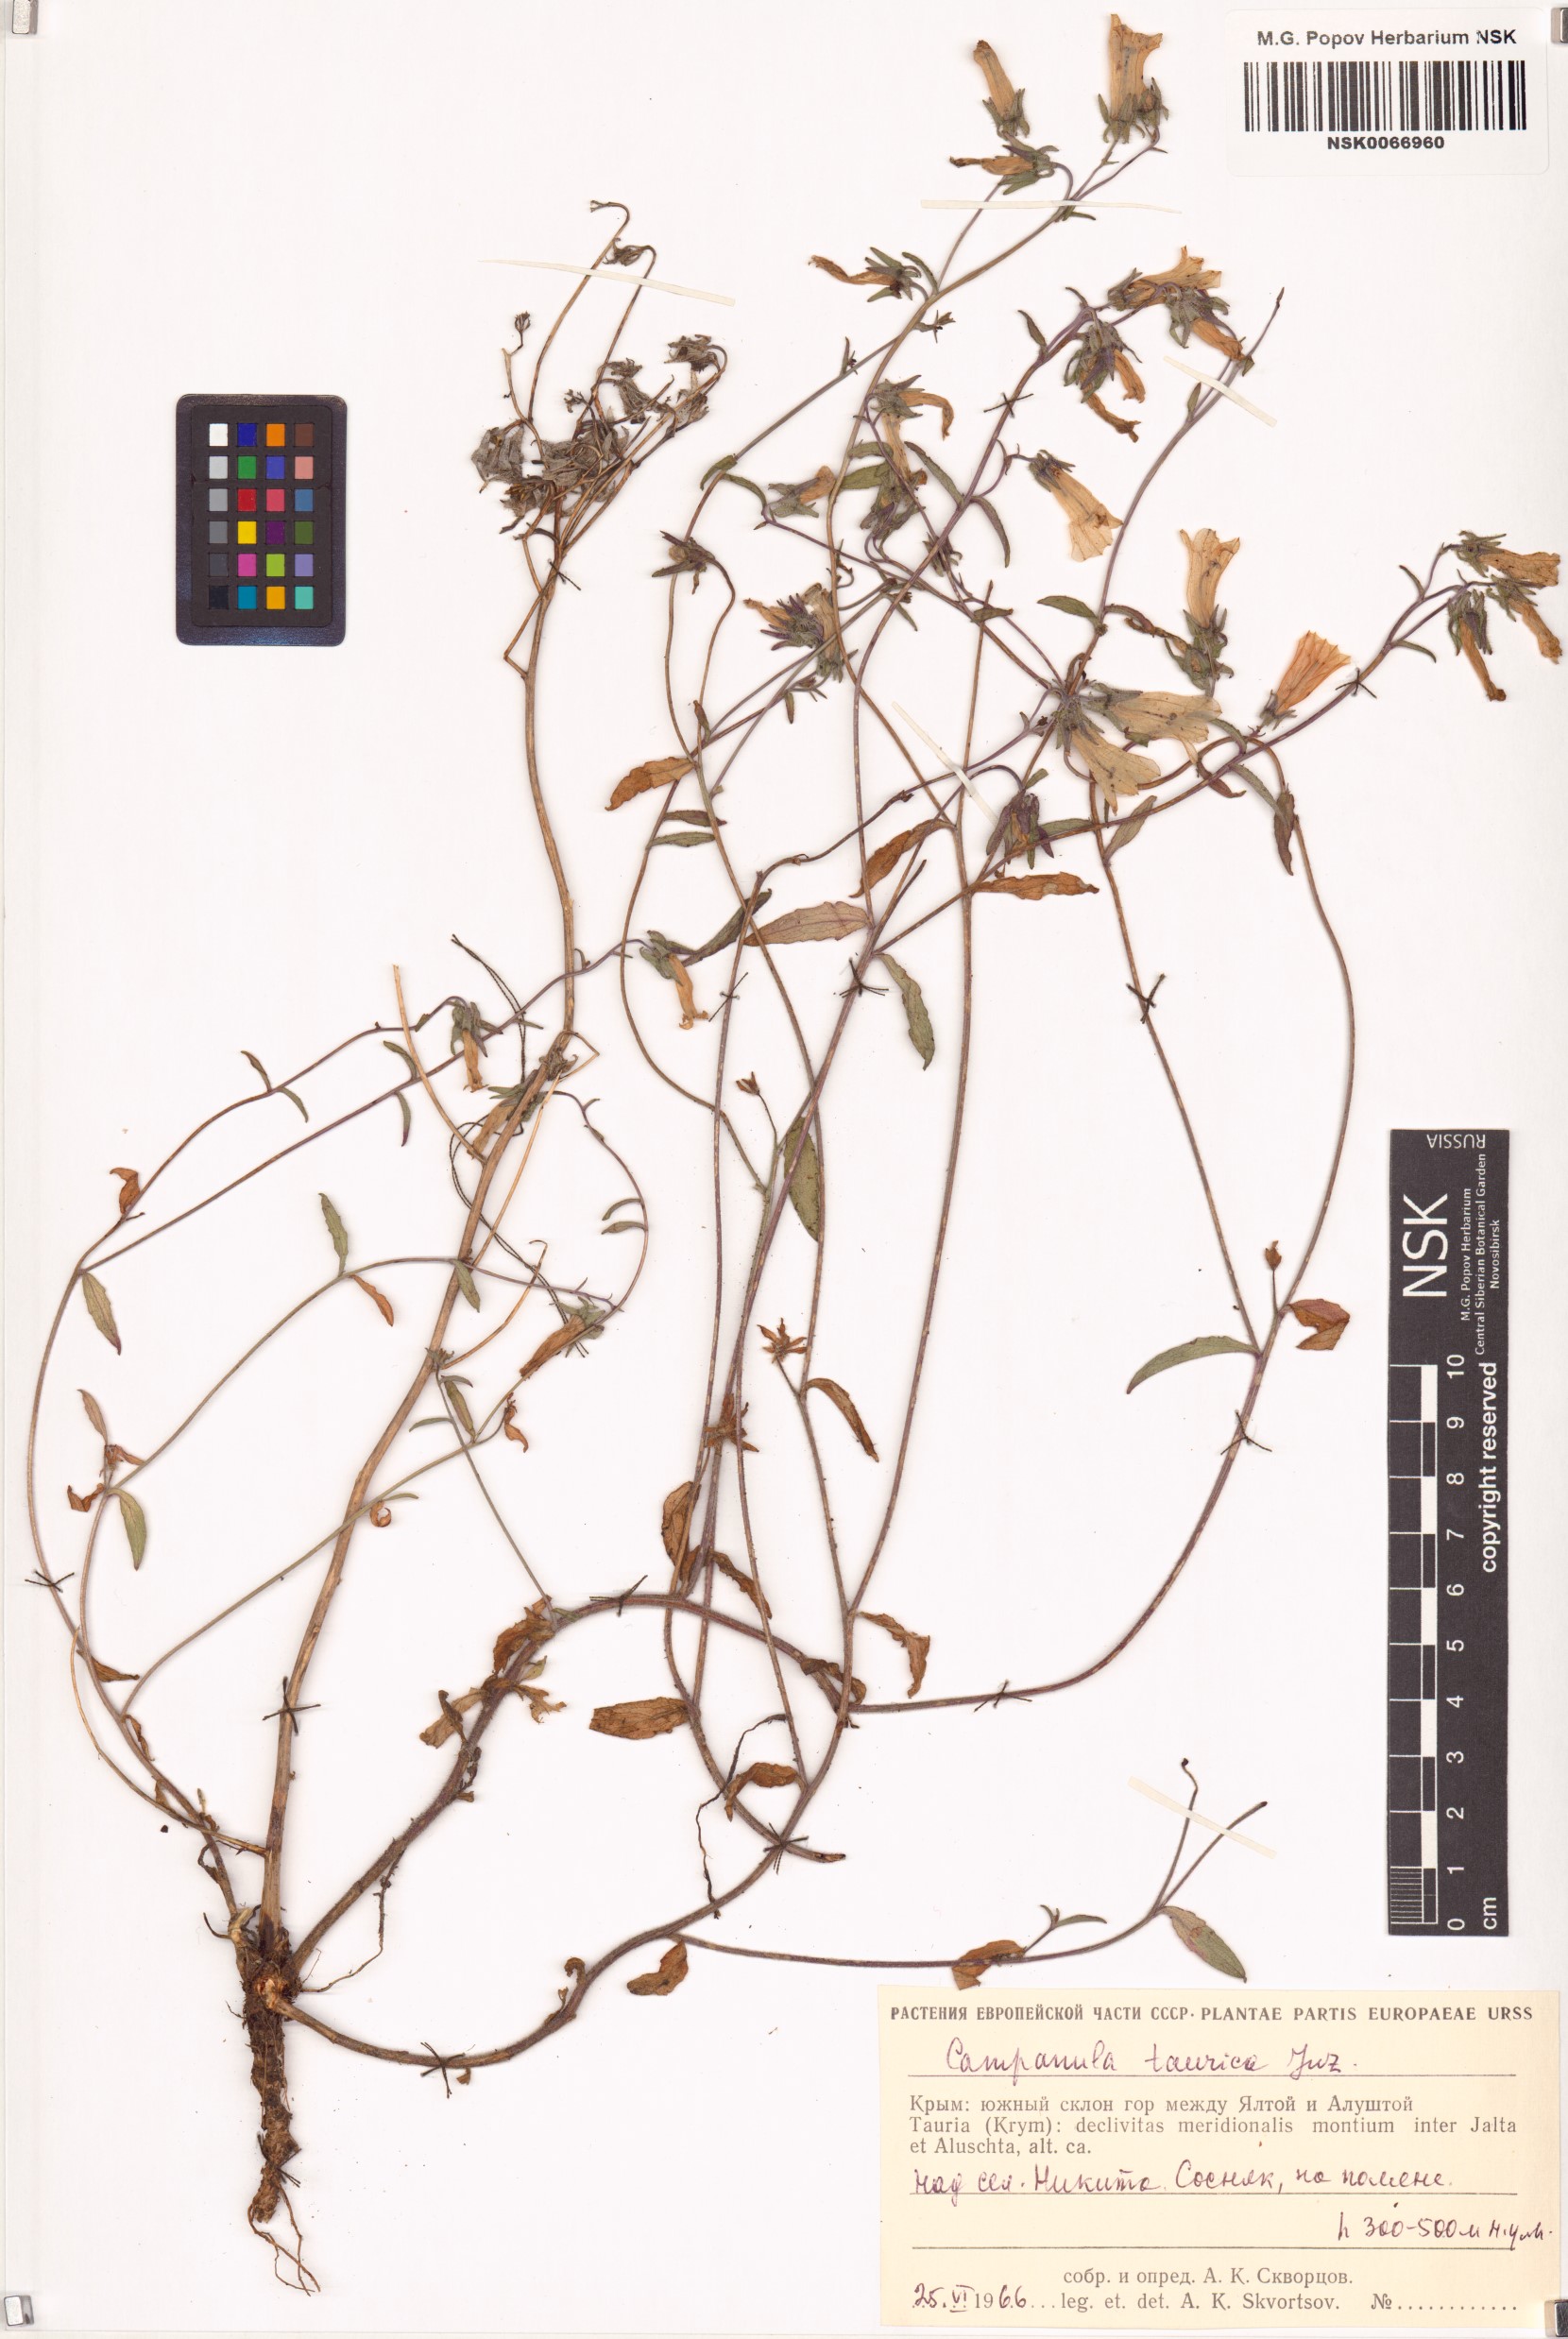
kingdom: Plantae
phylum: Tracheophyta
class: Magnoliopsida
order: Asterales
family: Campanulaceae
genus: Campanula
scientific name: Campanula sibirica
